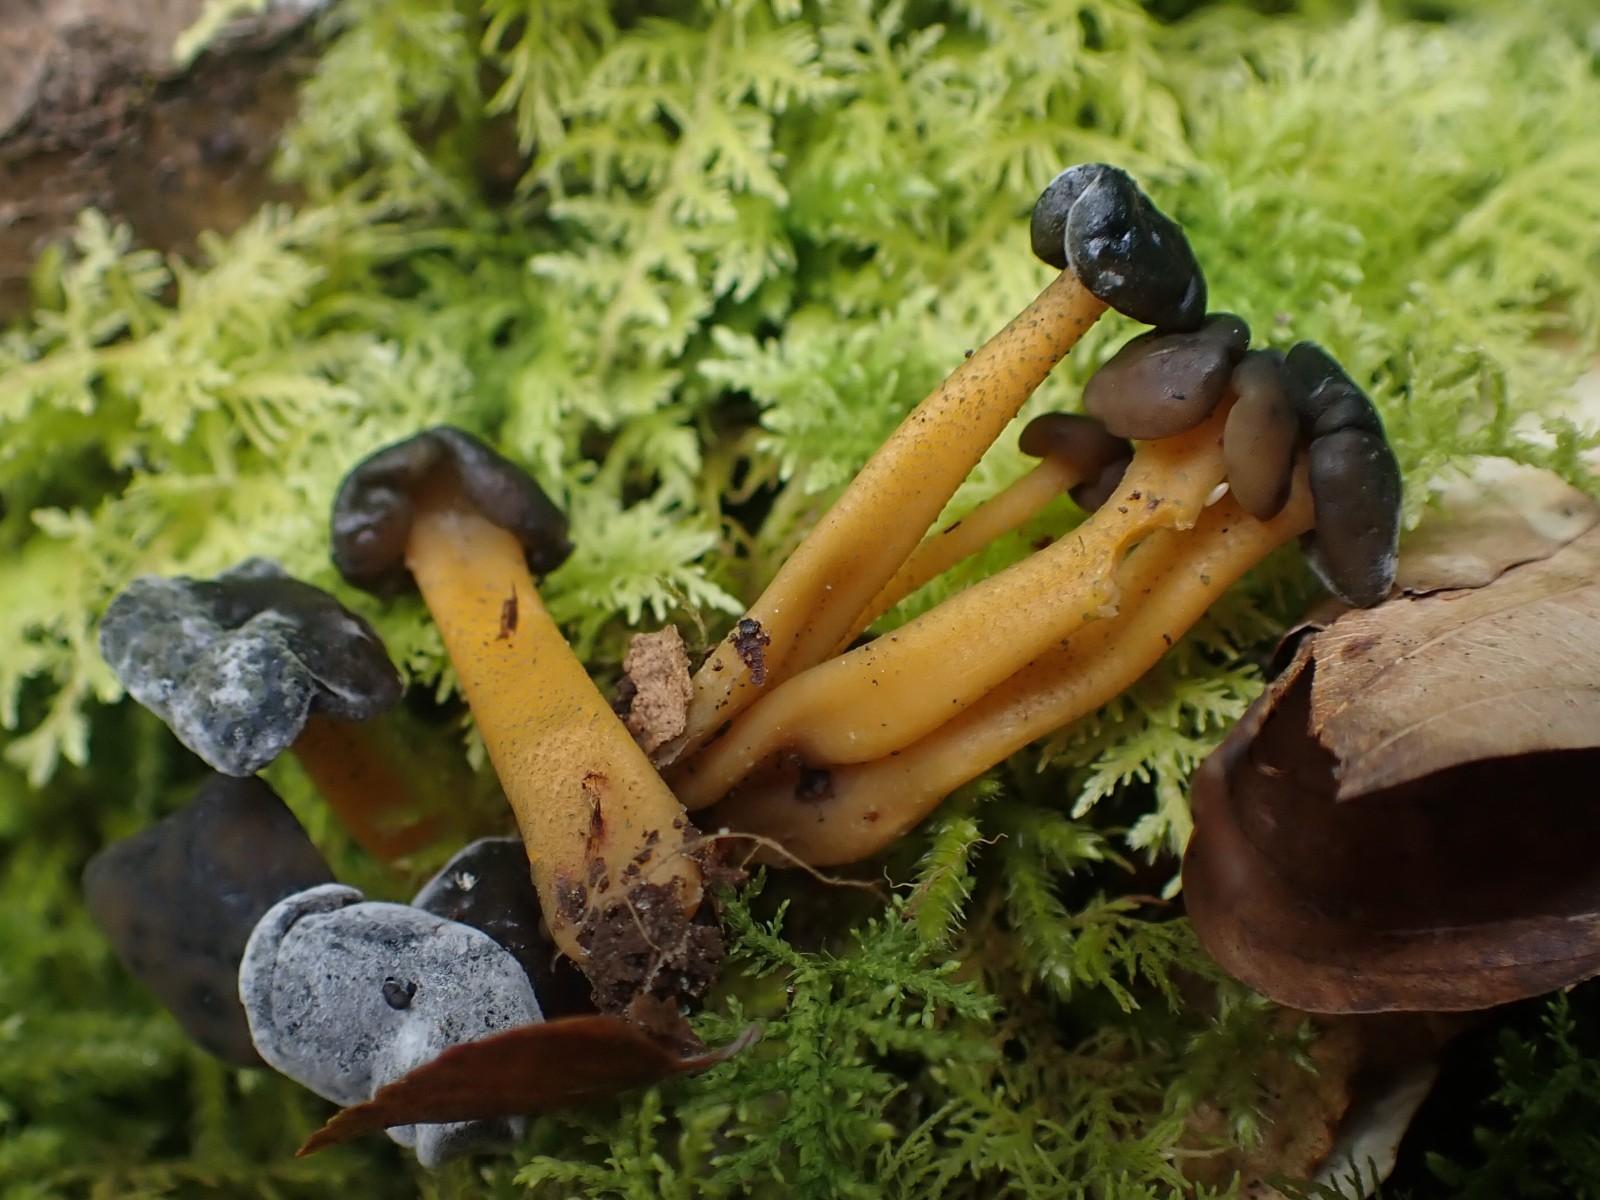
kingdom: Fungi
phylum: Ascomycota
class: Leotiomycetes
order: Leotiales
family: Leotiaceae
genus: Leotia
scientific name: Leotia lubrica
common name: ravsvamp
